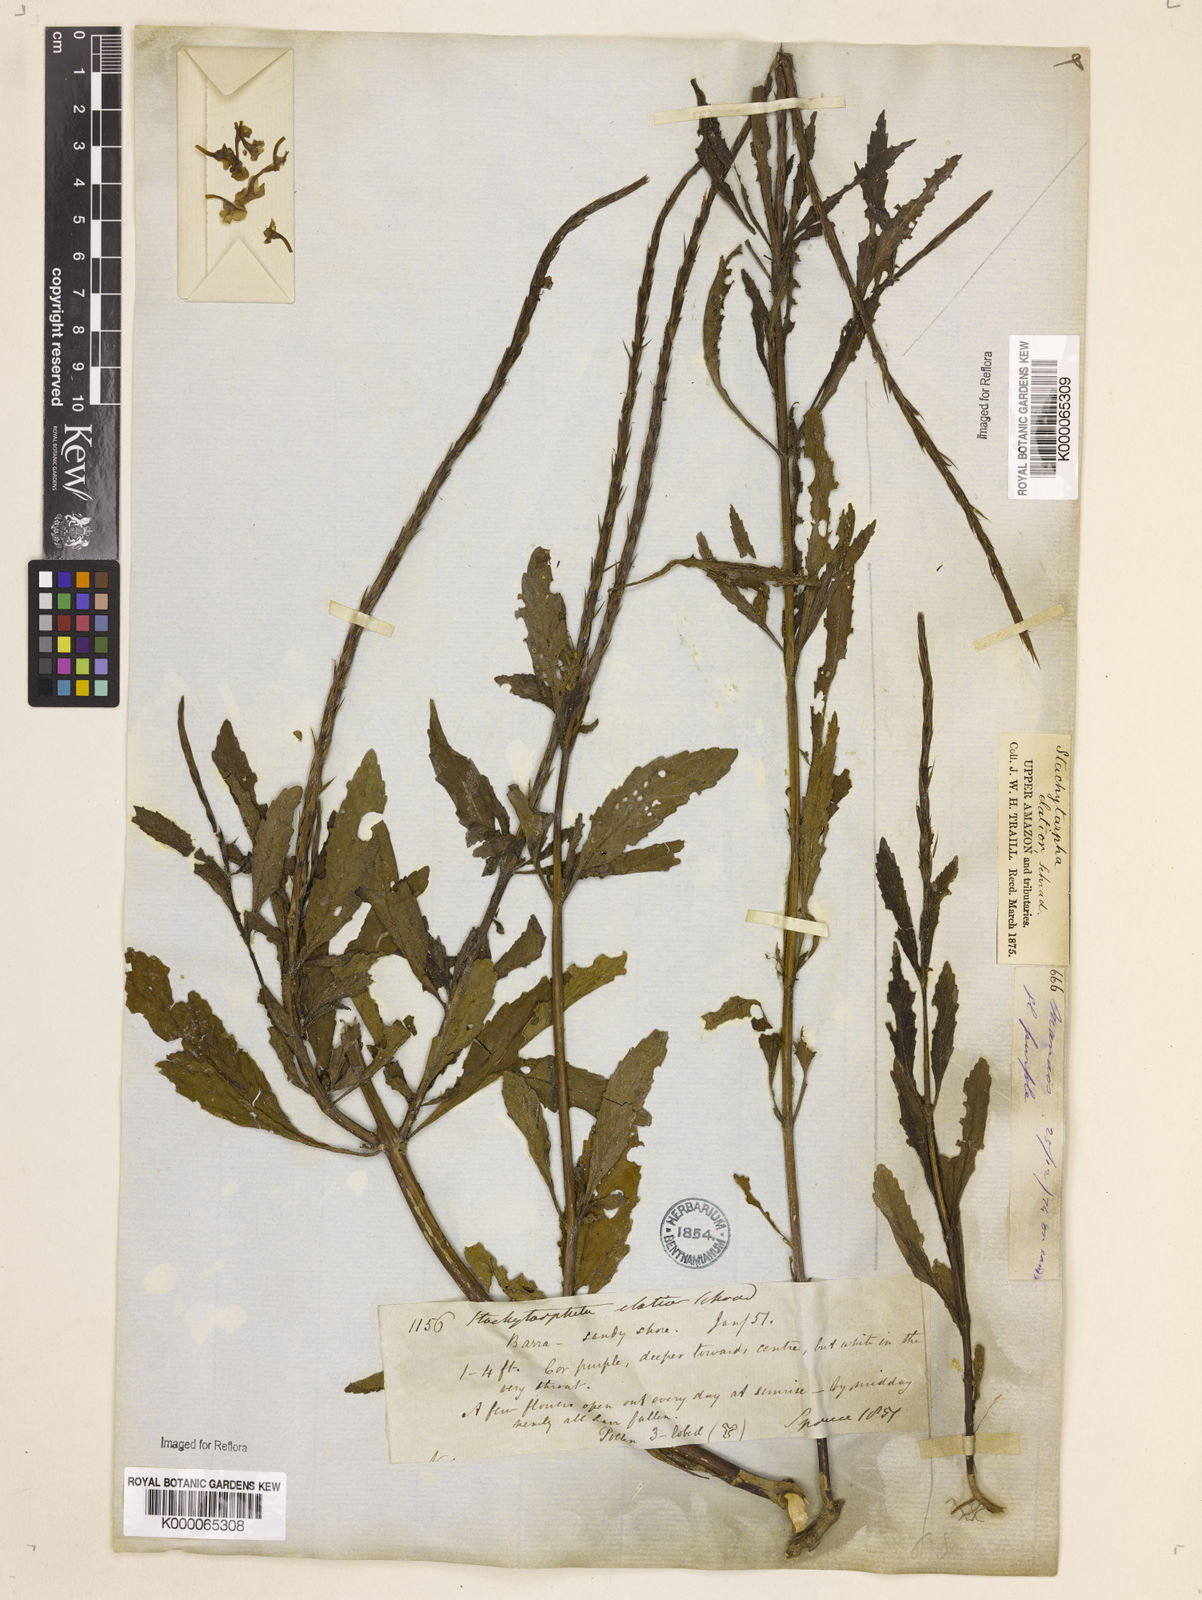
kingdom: Plantae
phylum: Tracheophyta
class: Magnoliopsida
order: Lamiales
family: Verbenaceae
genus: Stachytarpheta
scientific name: Stachytarpheta indica
